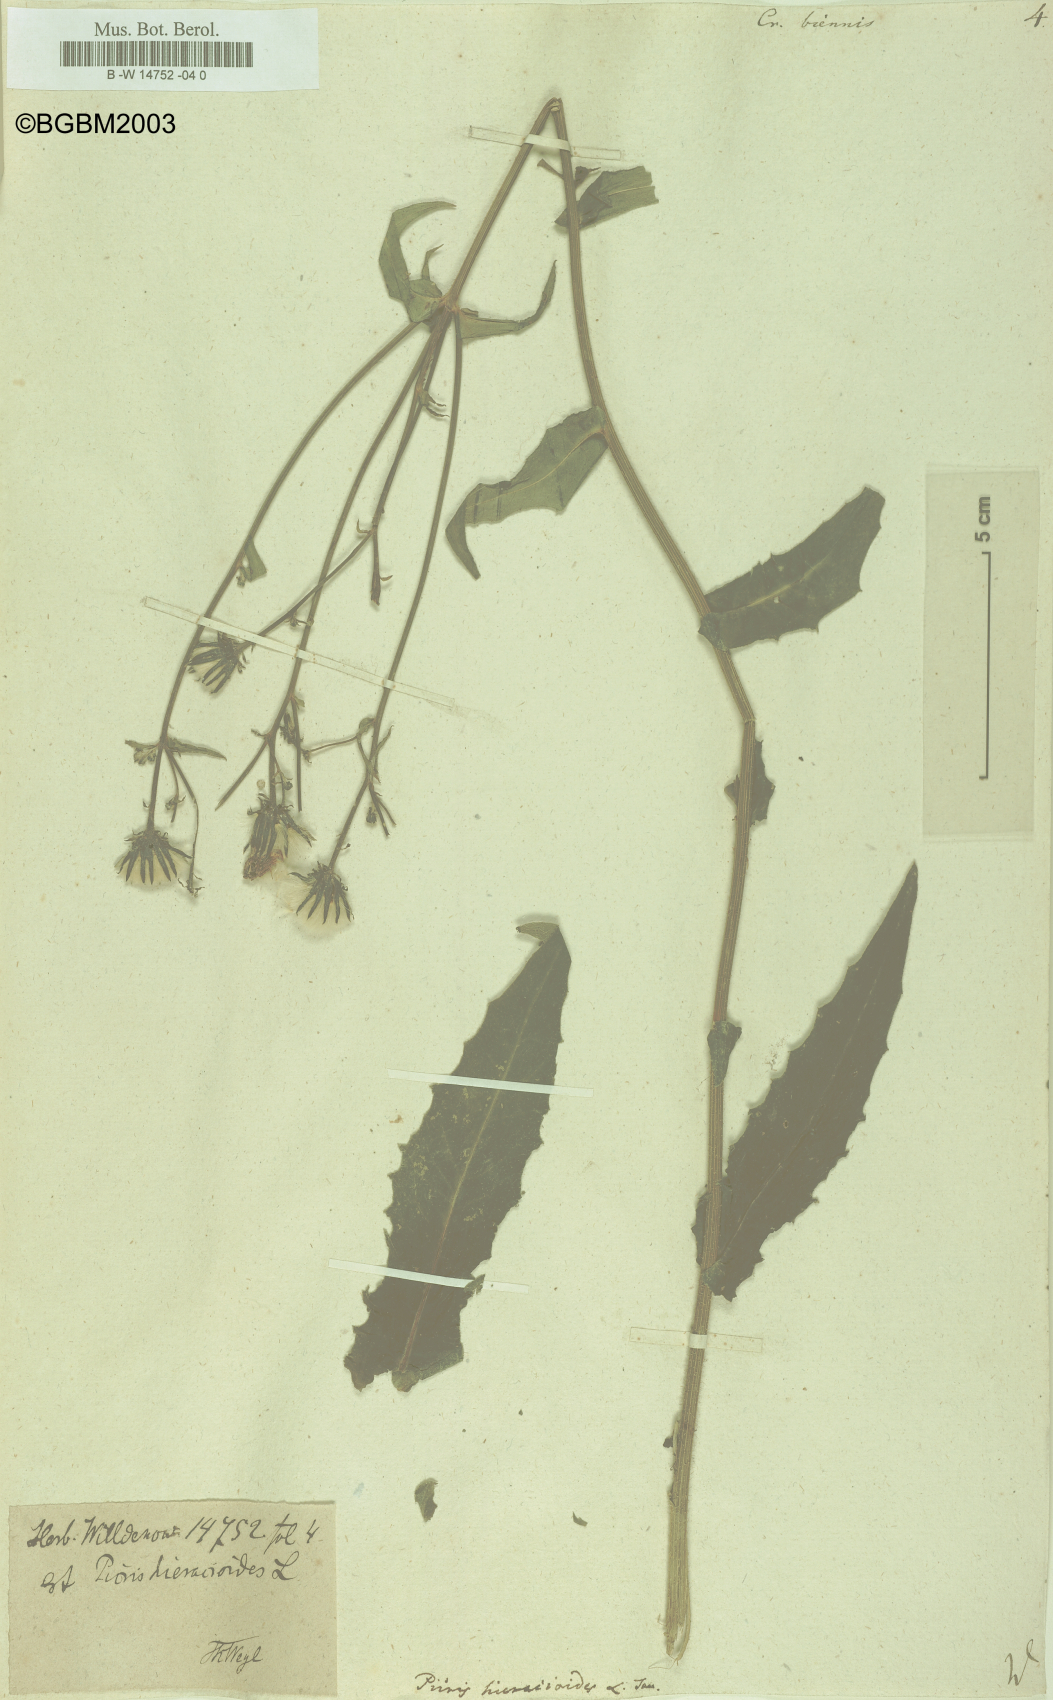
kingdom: Plantae
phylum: Tracheophyta
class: Magnoliopsida
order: Asterales
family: Asteraceae
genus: Crepis
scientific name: Crepis biennis
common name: Rough hawk's-beard
